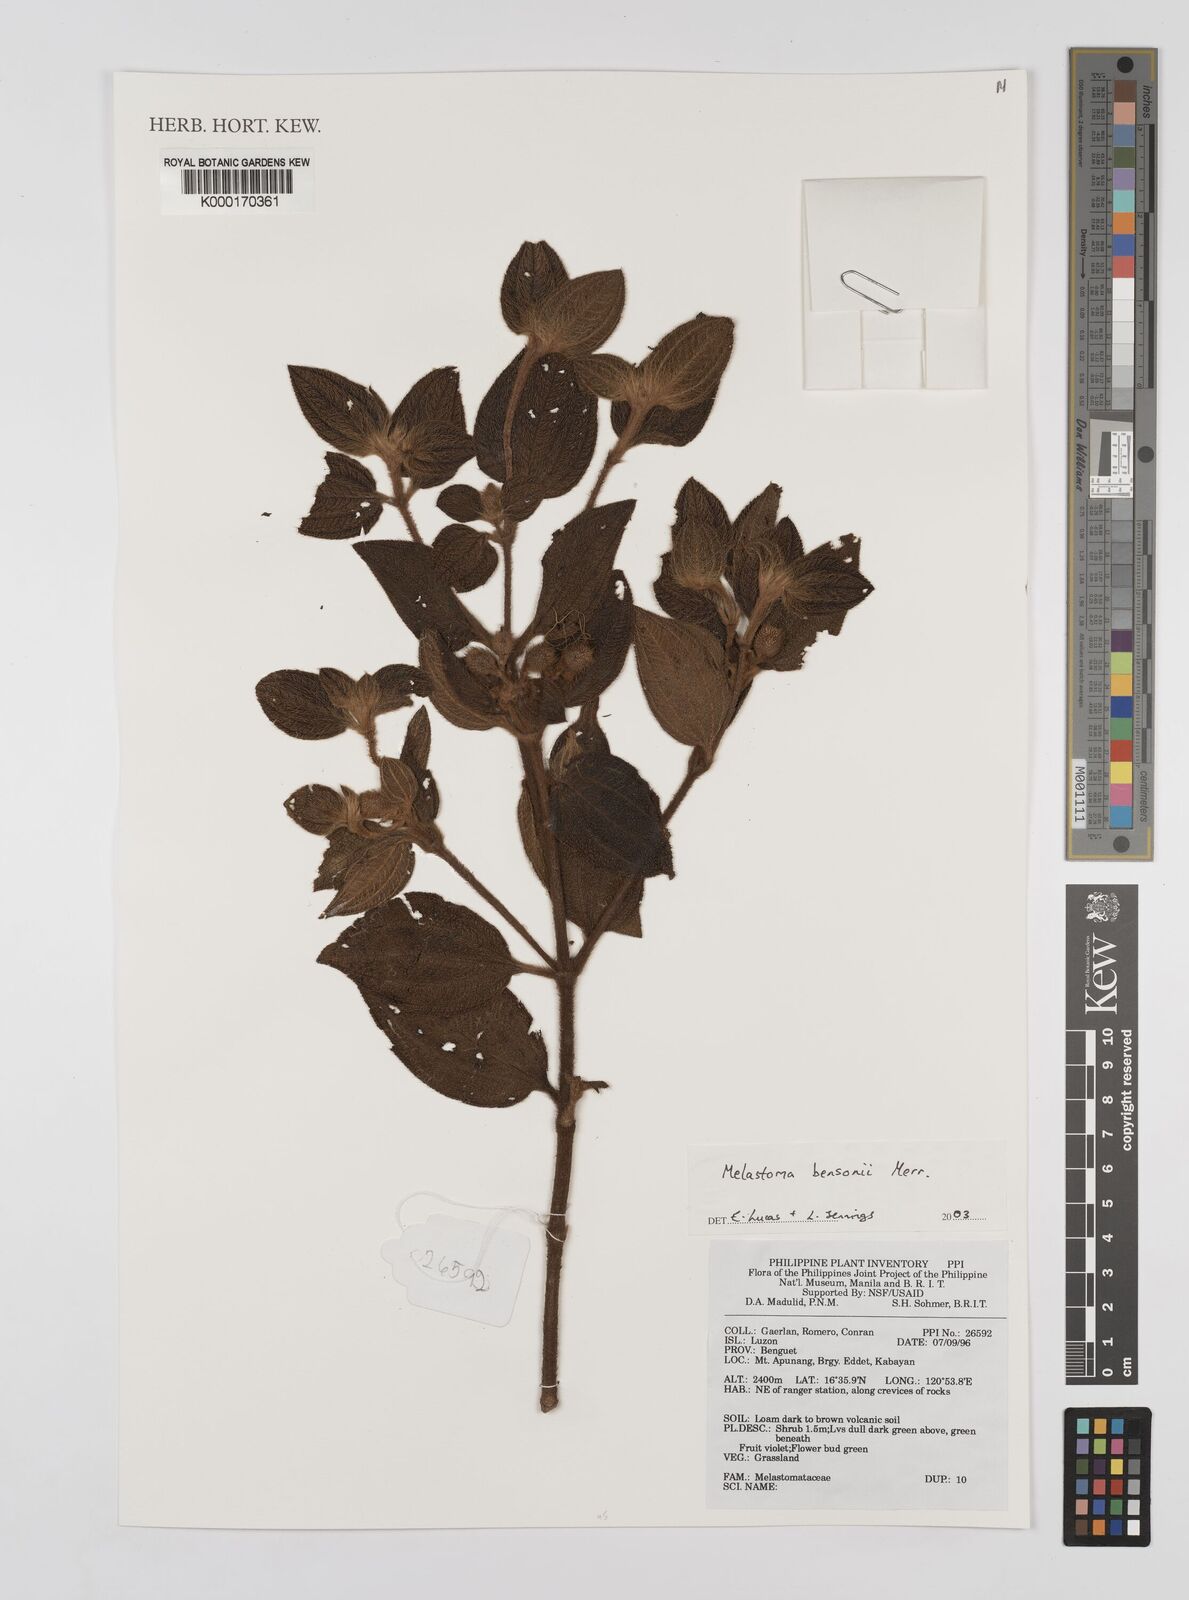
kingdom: Plantae
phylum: Tracheophyta
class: Magnoliopsida
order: Myrtales
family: Melastomataceae
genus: Melastoma
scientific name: Melastoma bensonii
